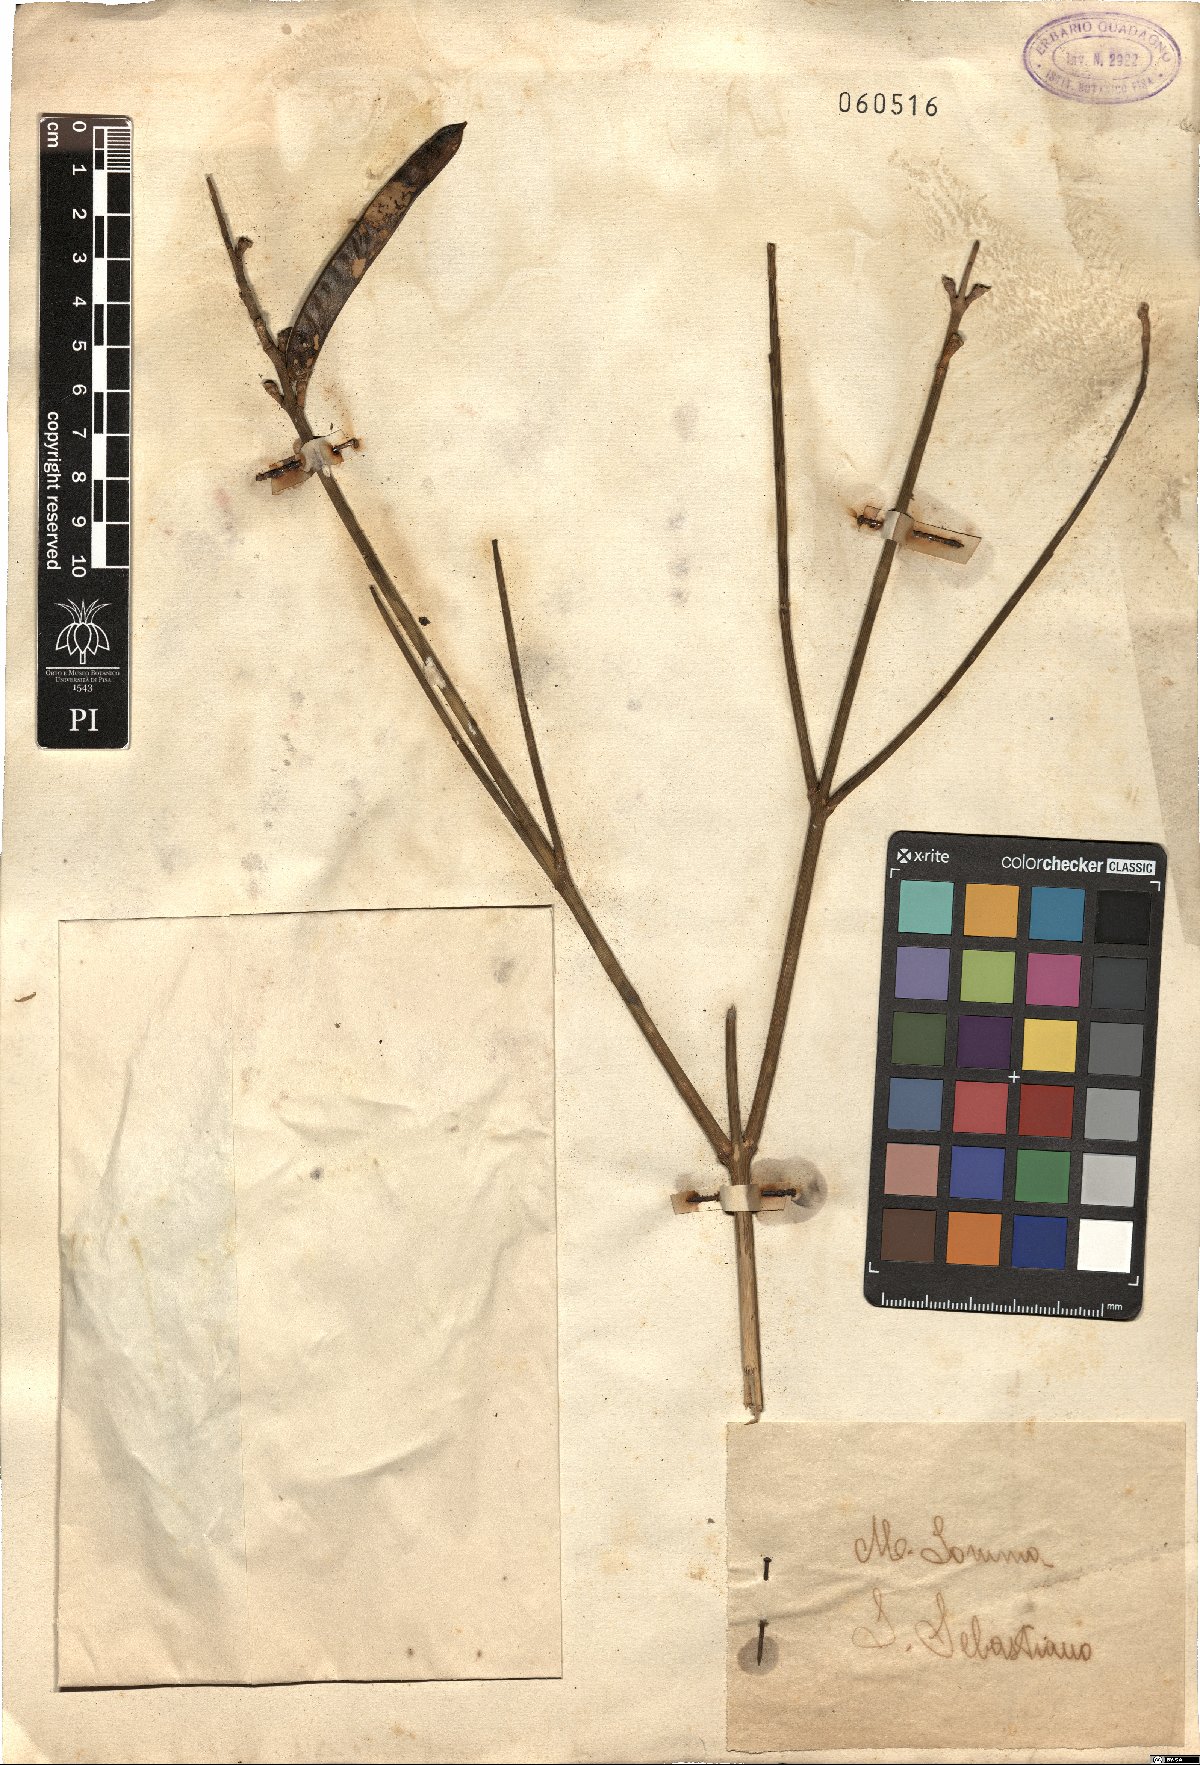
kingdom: Plantae
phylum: Tracheophyta
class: Magnoliopsida
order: Fabales
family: Fabaceae
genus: Spartium
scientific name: Spartium junceum
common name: Spanish broom
